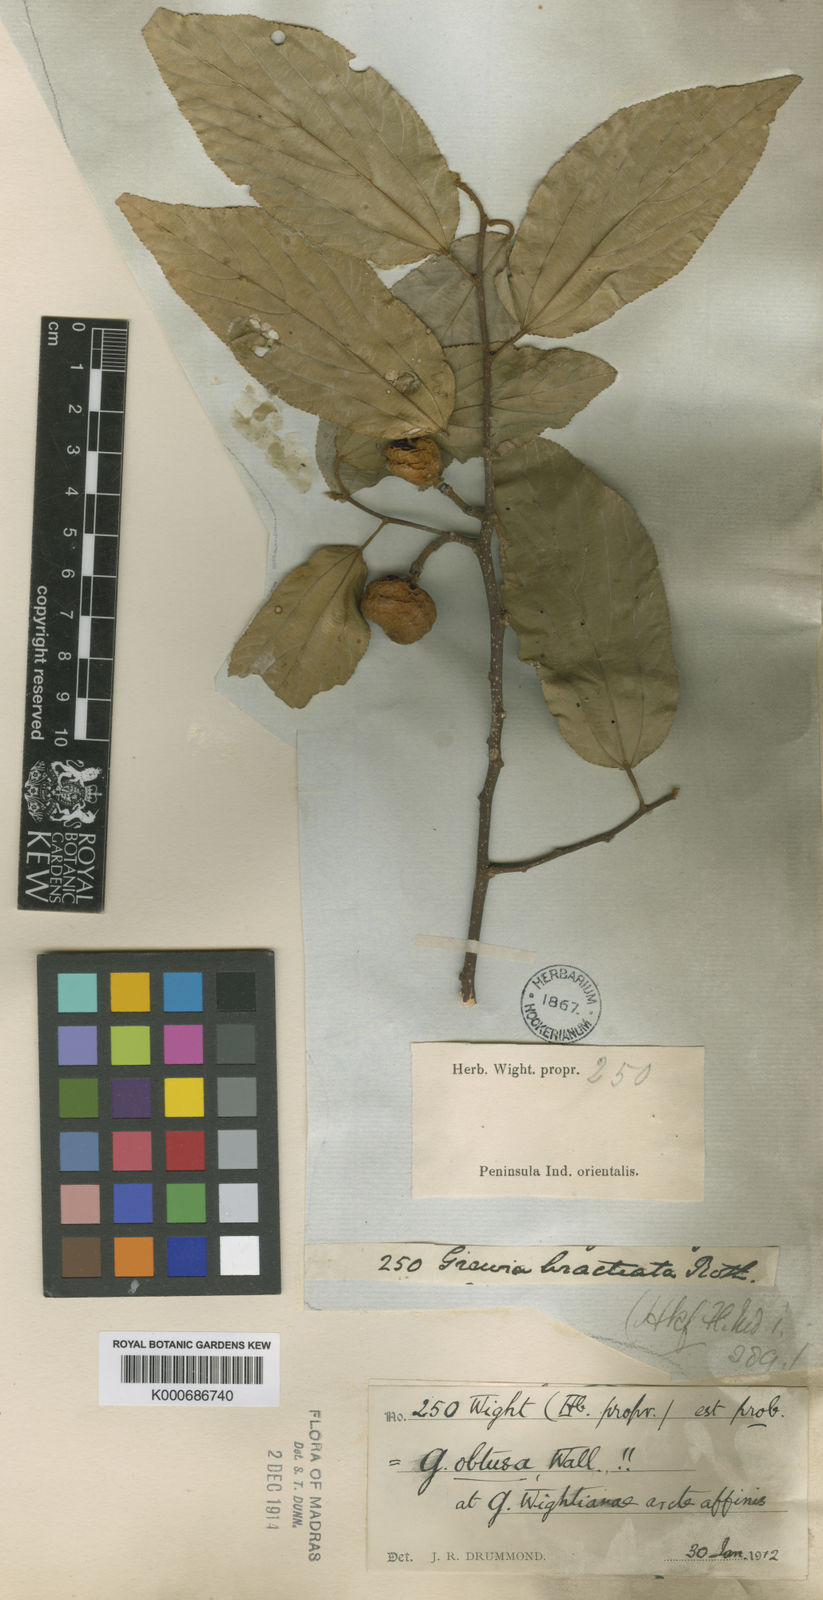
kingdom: Plantae
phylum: Tracheophyta
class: Magnoliopsida
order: Malvales
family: Malvaceae
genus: Grewia
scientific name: Grewia
